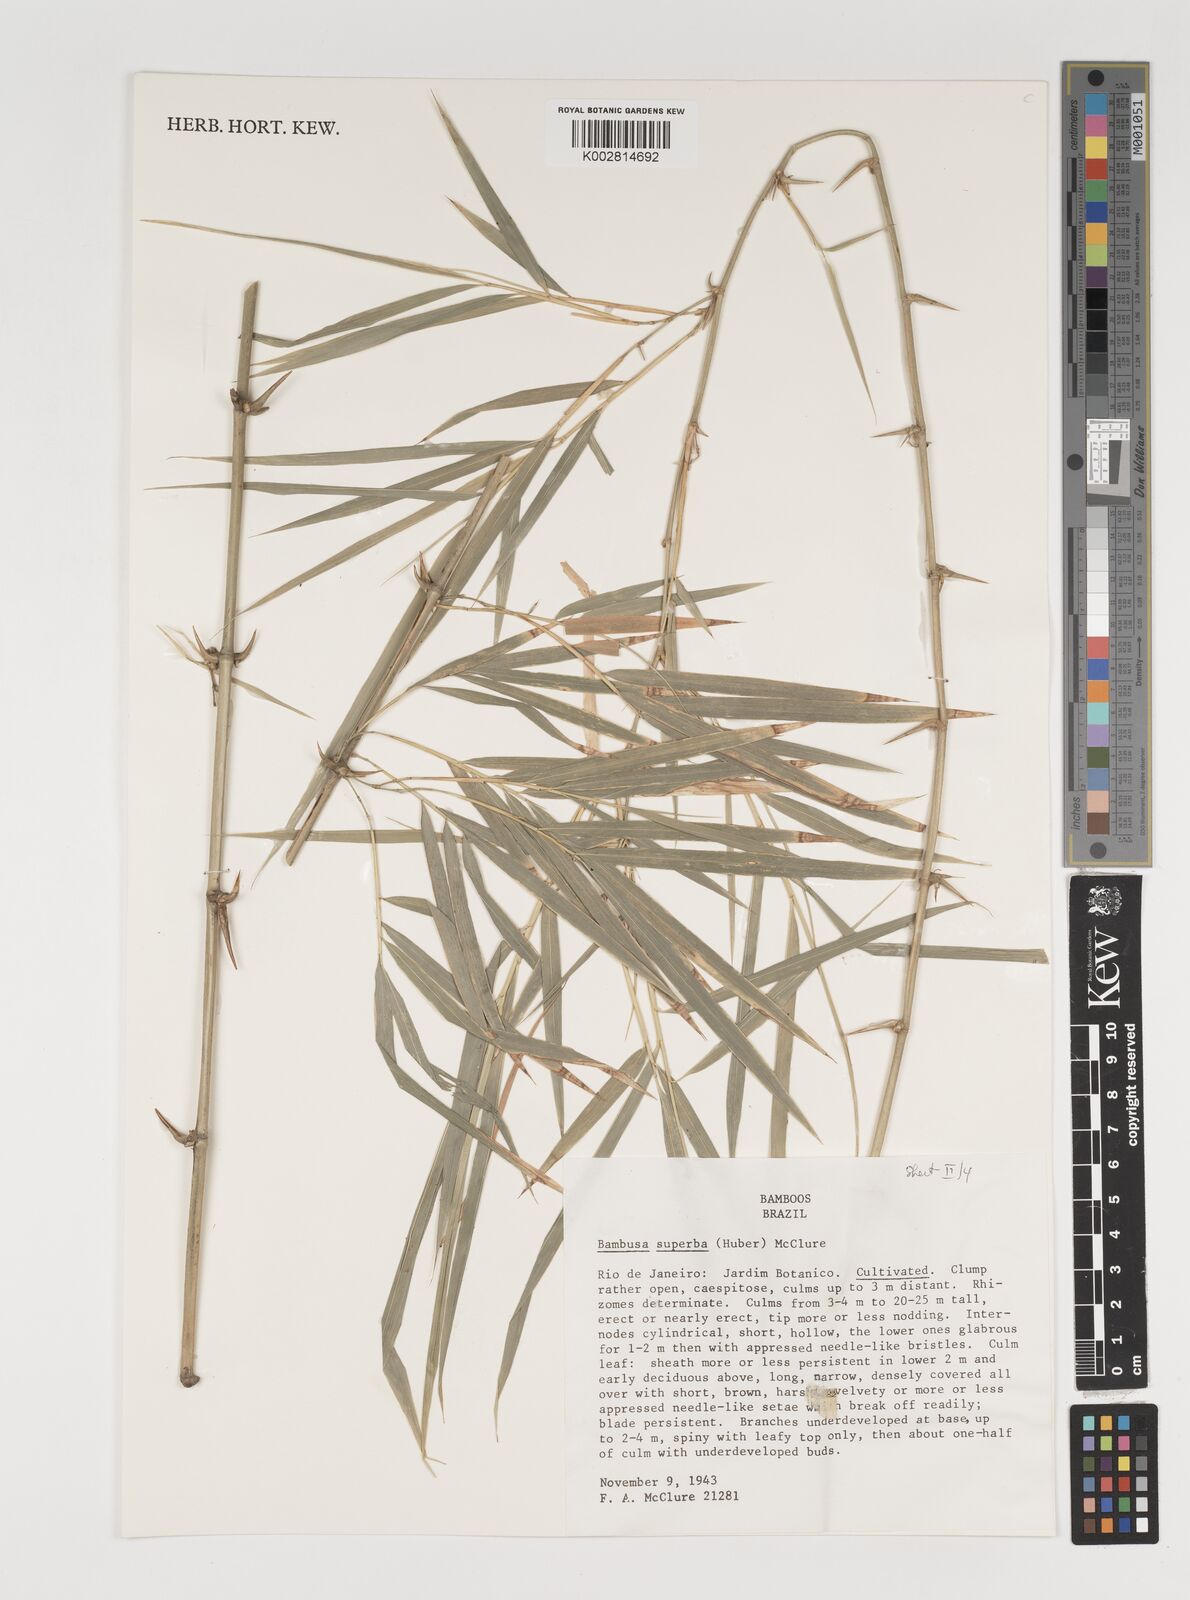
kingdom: Plantae
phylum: Tracheophyta
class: Liliopsida
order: Poales
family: Poaceae
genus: Guadua
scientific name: Guadua superba
